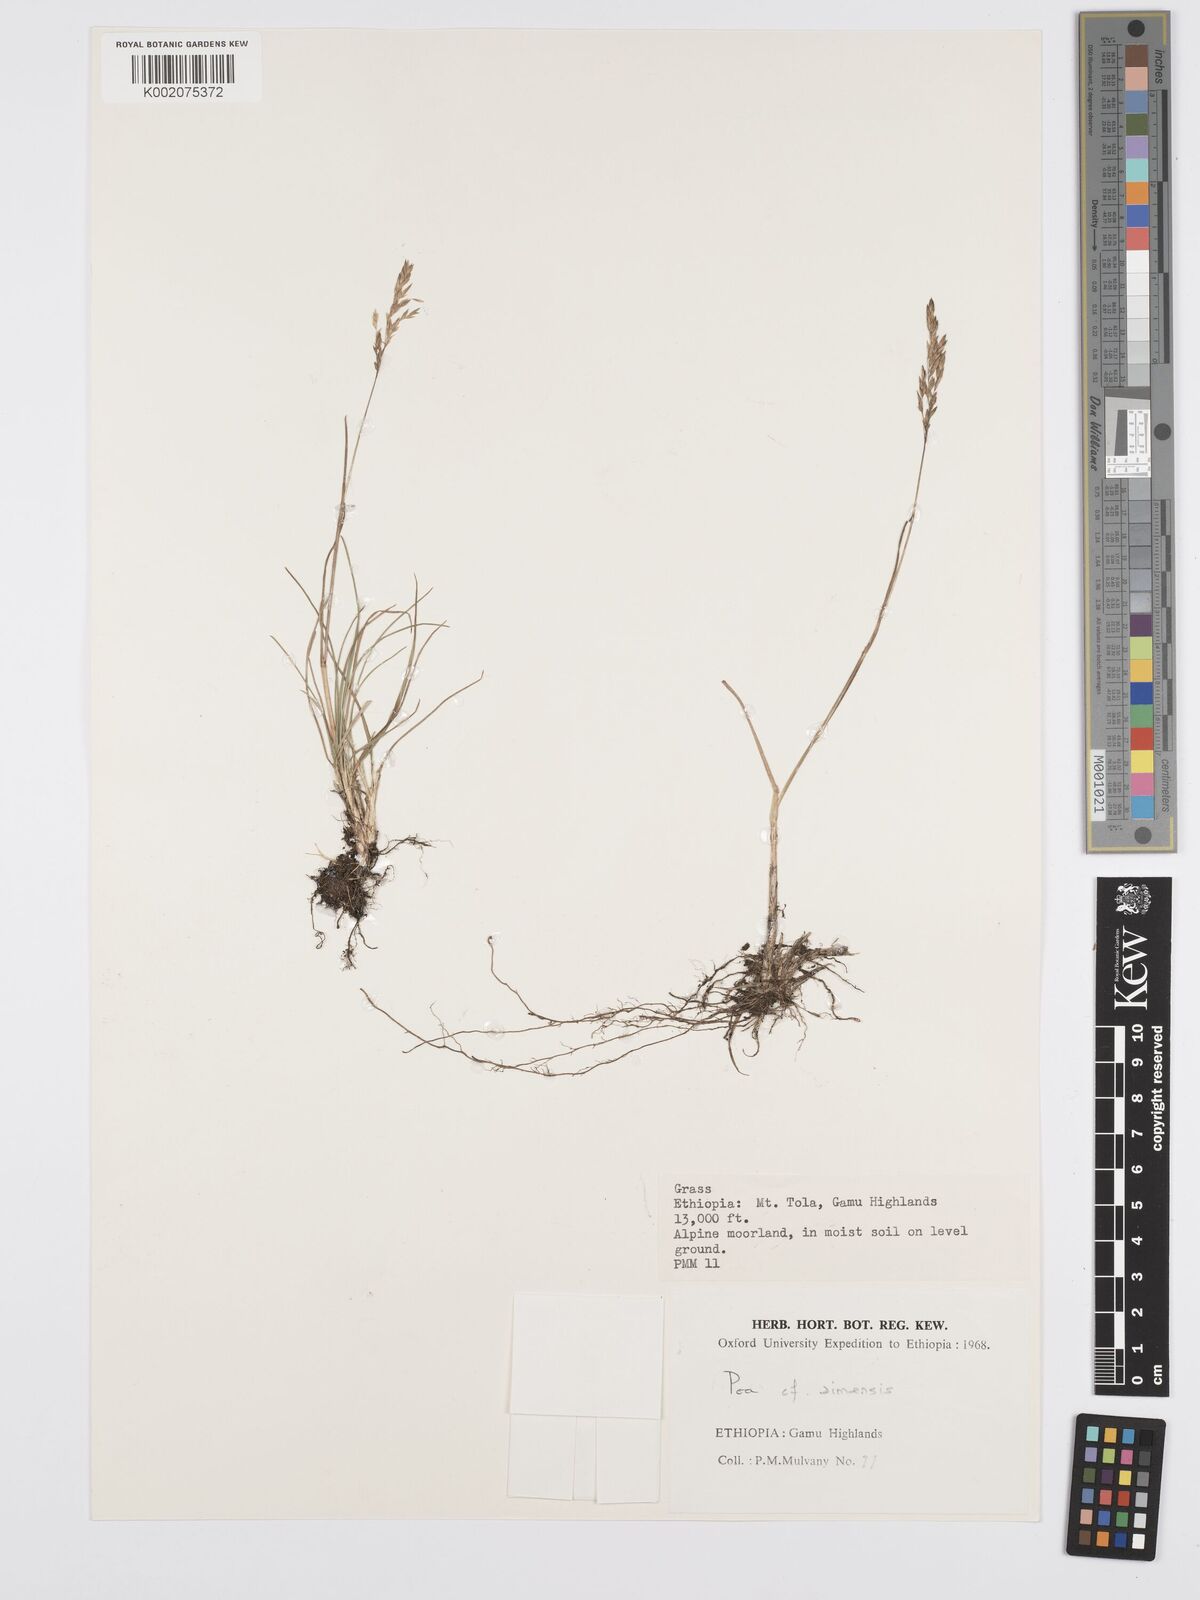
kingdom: Plantae
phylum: Tracheophyta
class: Liliopsida
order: Poales
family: Poaceae
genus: Poa
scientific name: Poa simensis
